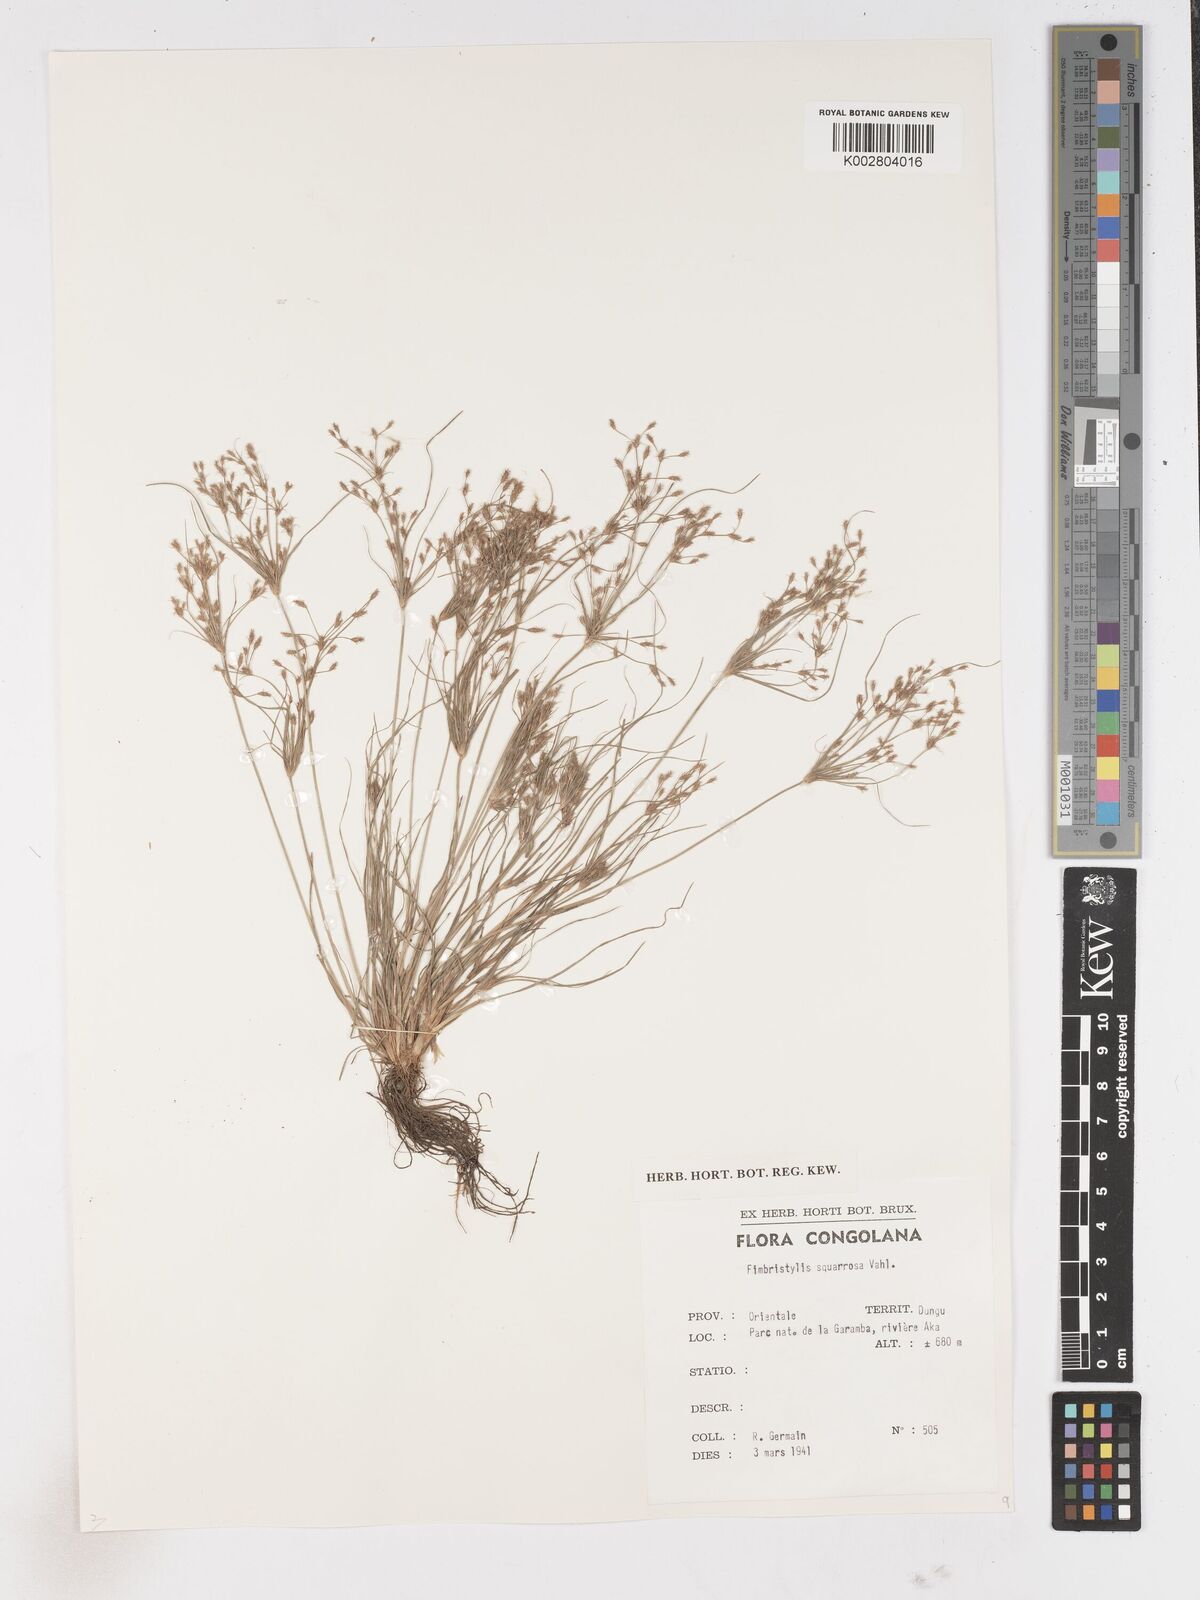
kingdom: Plantae
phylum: Tracheophyta
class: Liliopsida
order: Poales
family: Cyperaceae
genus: Fimbristylis
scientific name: Fimbristylis squarrosa
